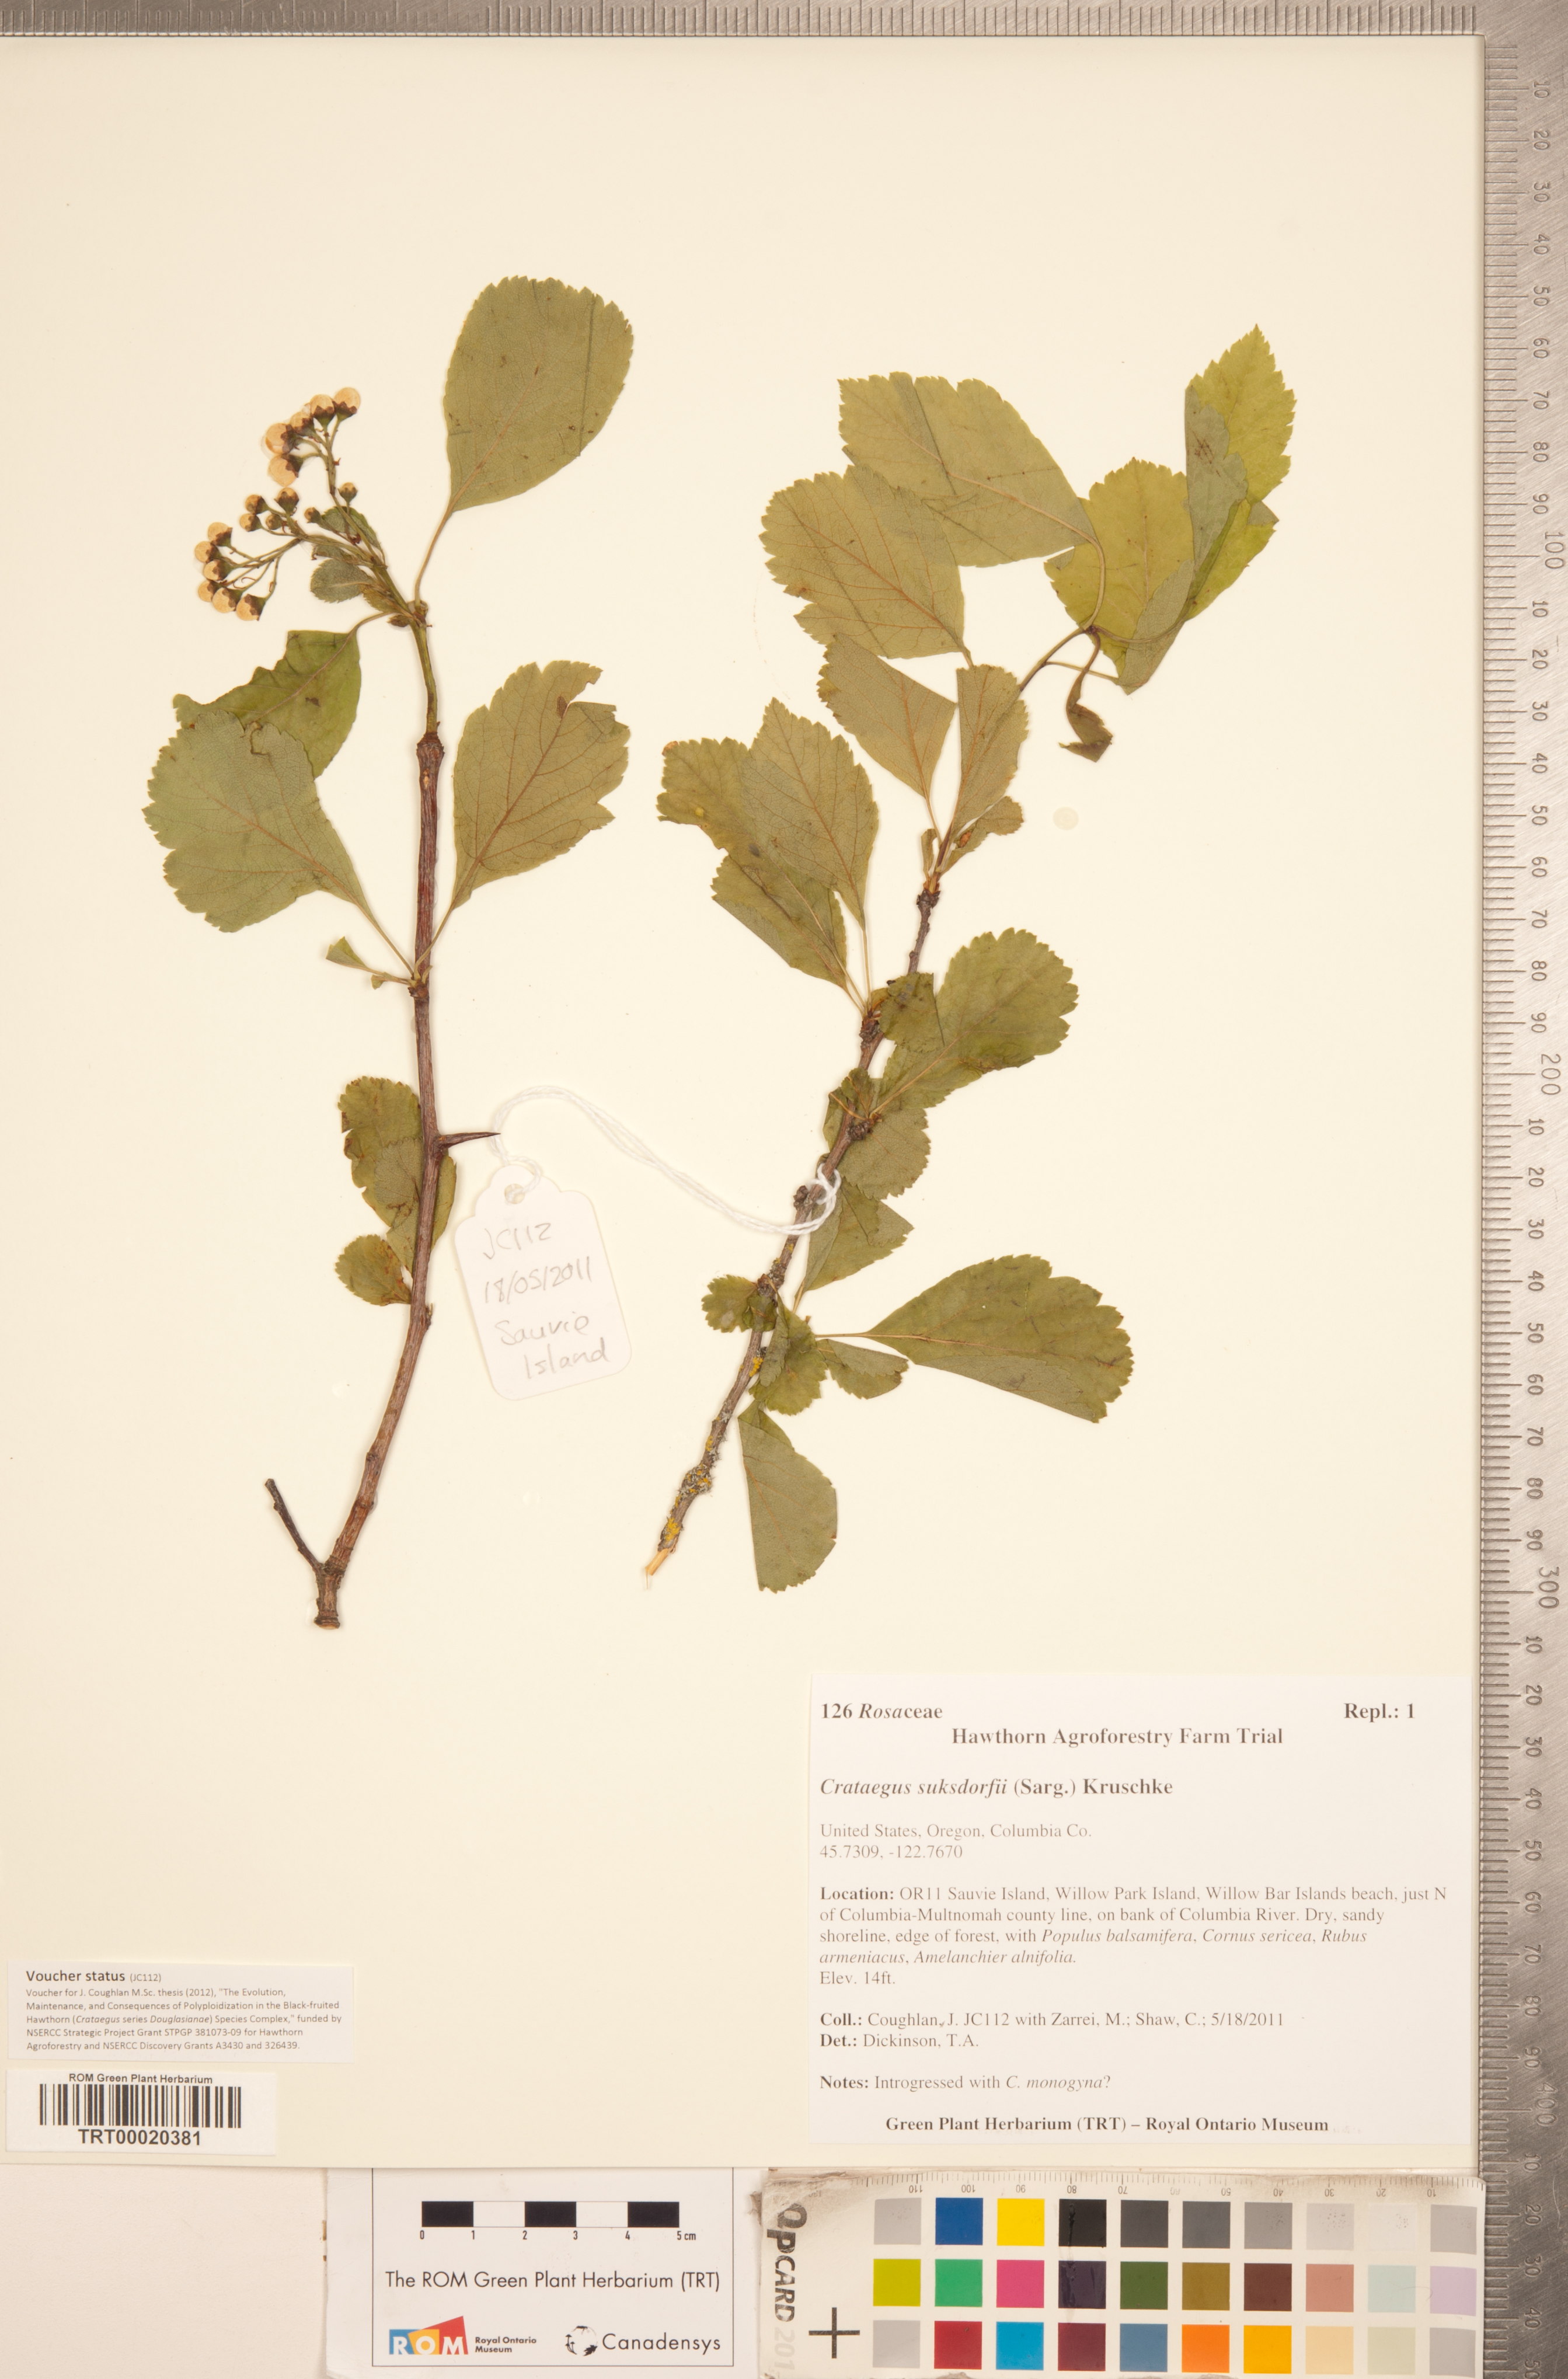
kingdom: Plantae
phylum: Tracheophyta
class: Magnoliopsida
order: Rosales
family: Rosaceae
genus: Crataegus
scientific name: Crataegus gaylussacia
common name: Huckleberry hawthorn
